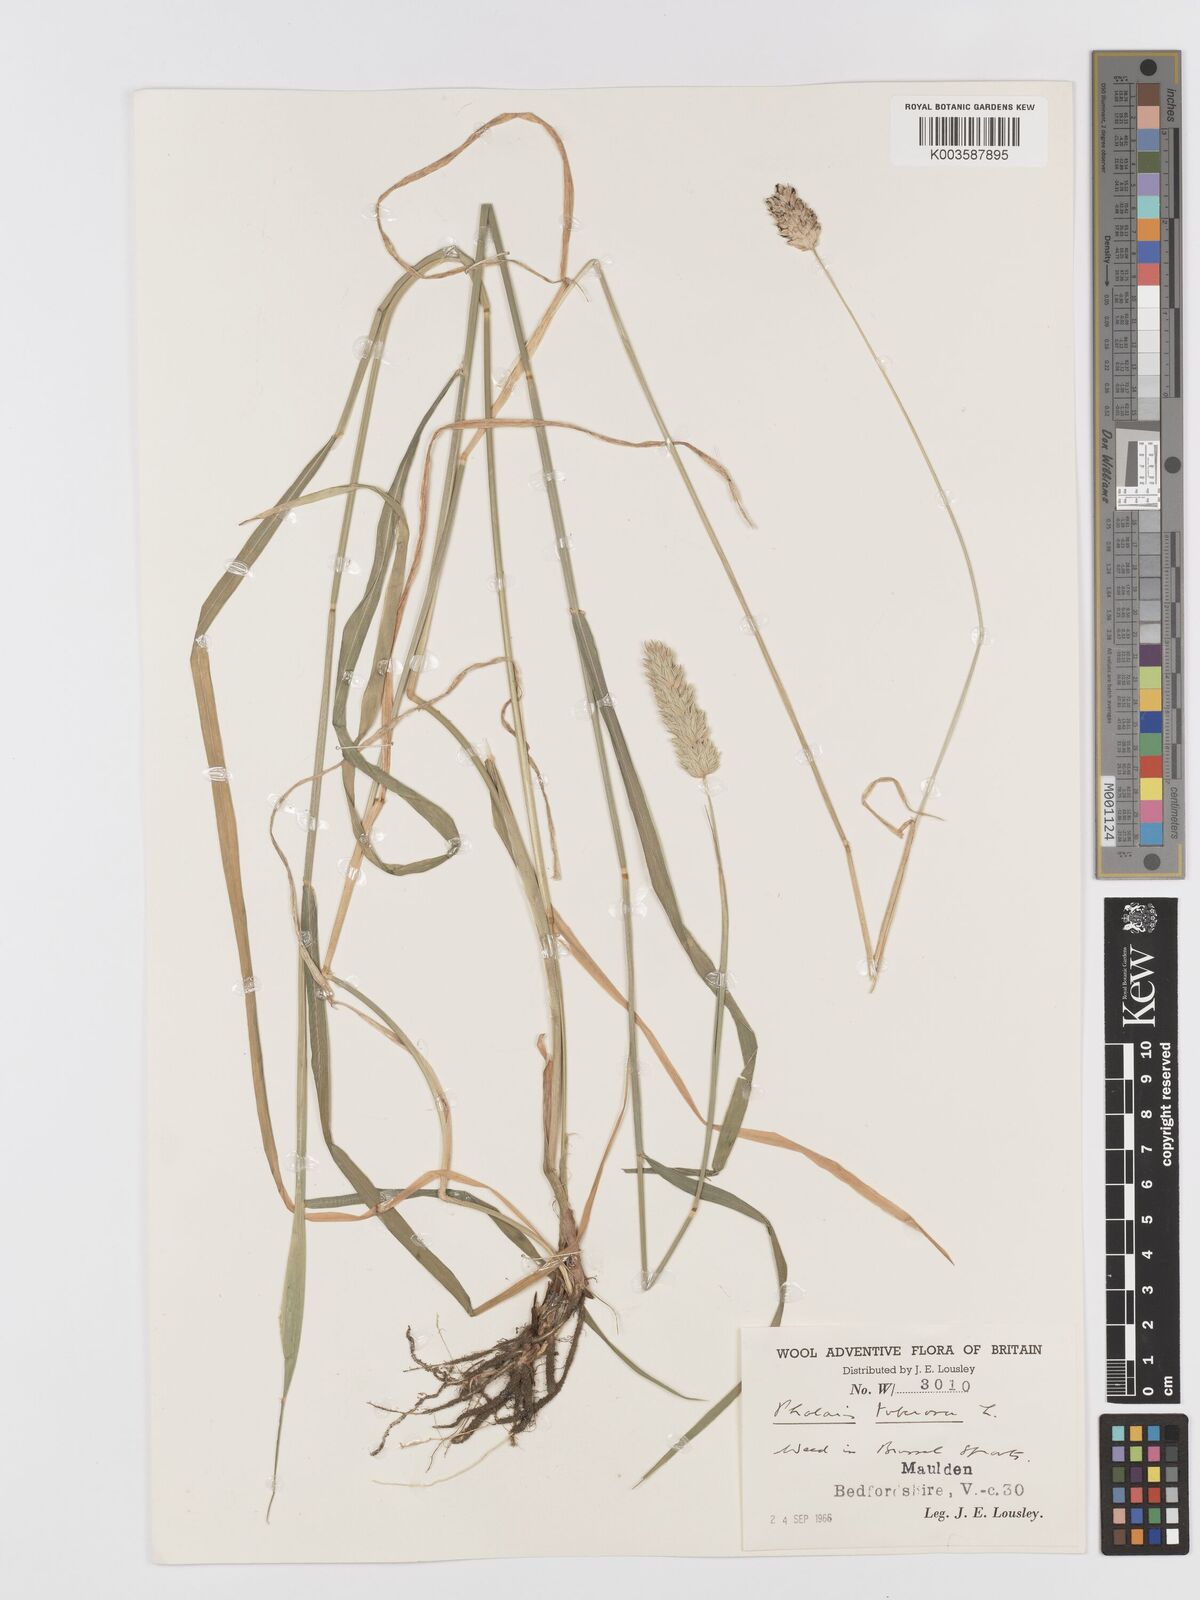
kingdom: Plantae
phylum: Tracheophyta
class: Liliopsida
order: Poales
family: Poaceae
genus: Phalaris
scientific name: Phalaris
